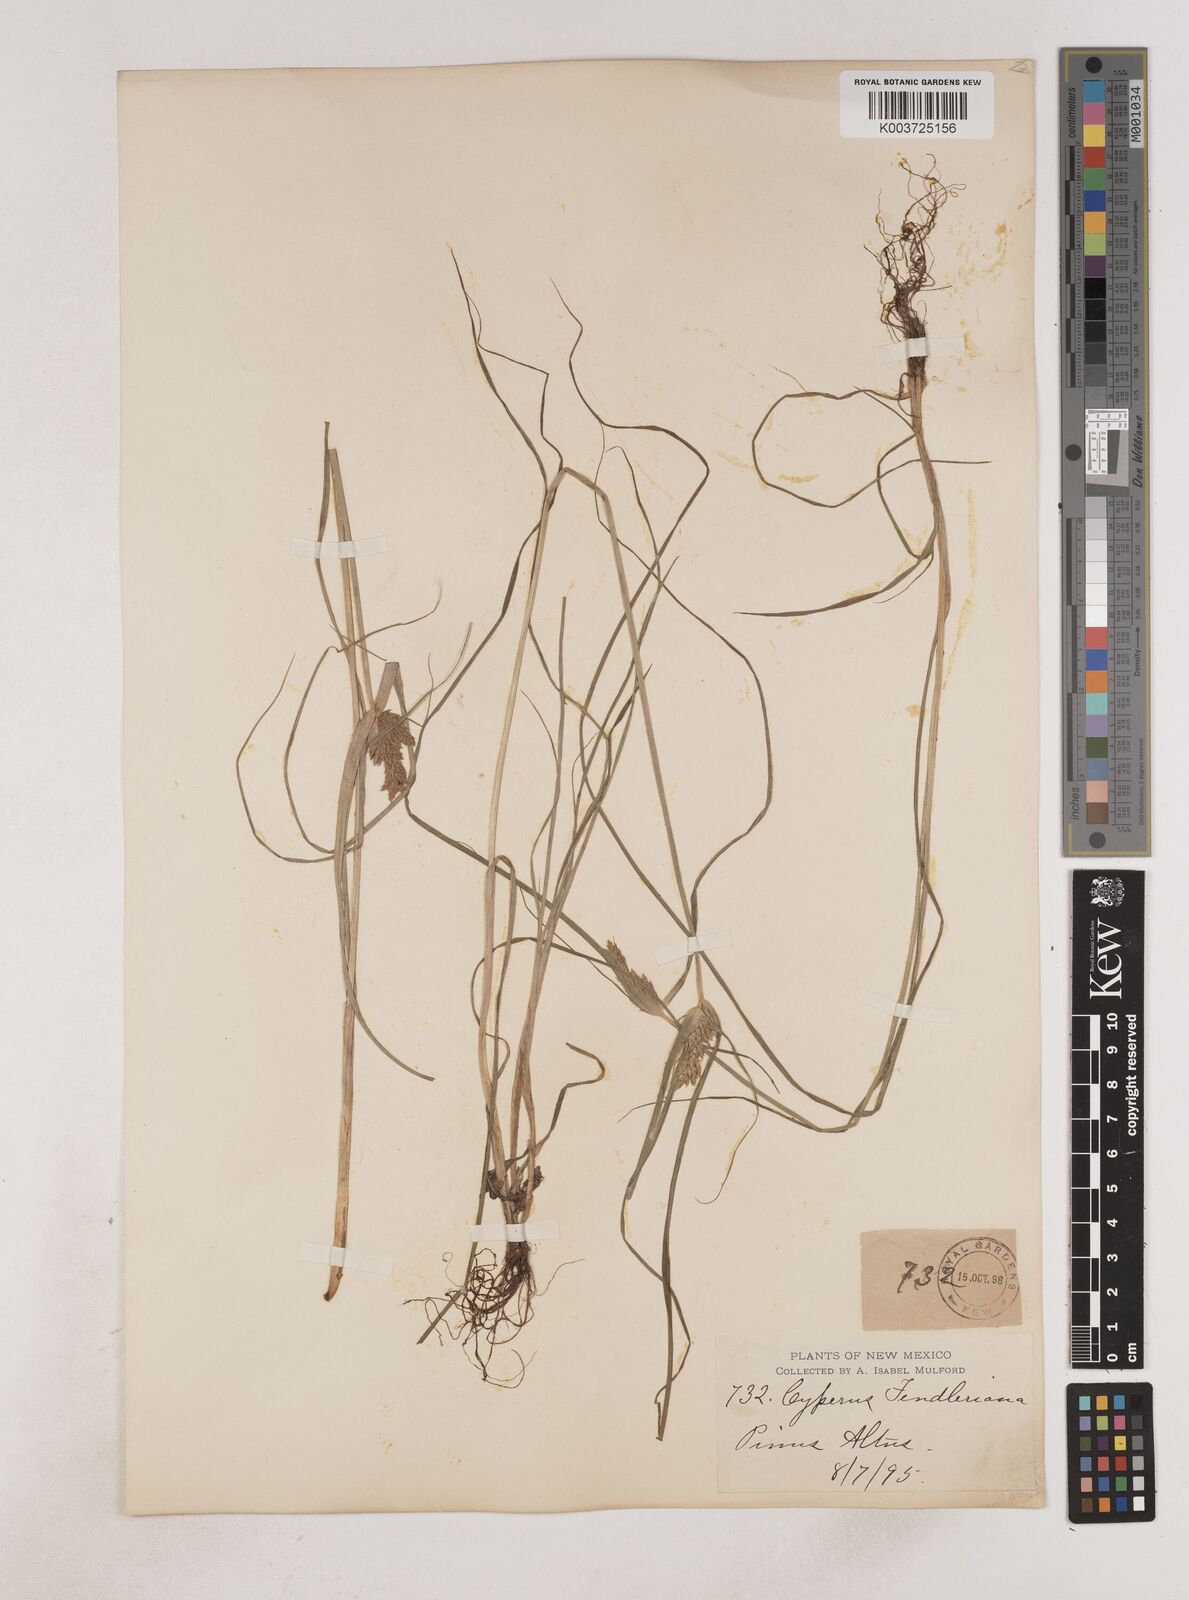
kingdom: Plantae
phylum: Tracheophyta
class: Liliopsida
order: Poales
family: Cyperaceae
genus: Cyperus
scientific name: Cyperus fendlerianus
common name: Fendler flat sedge
